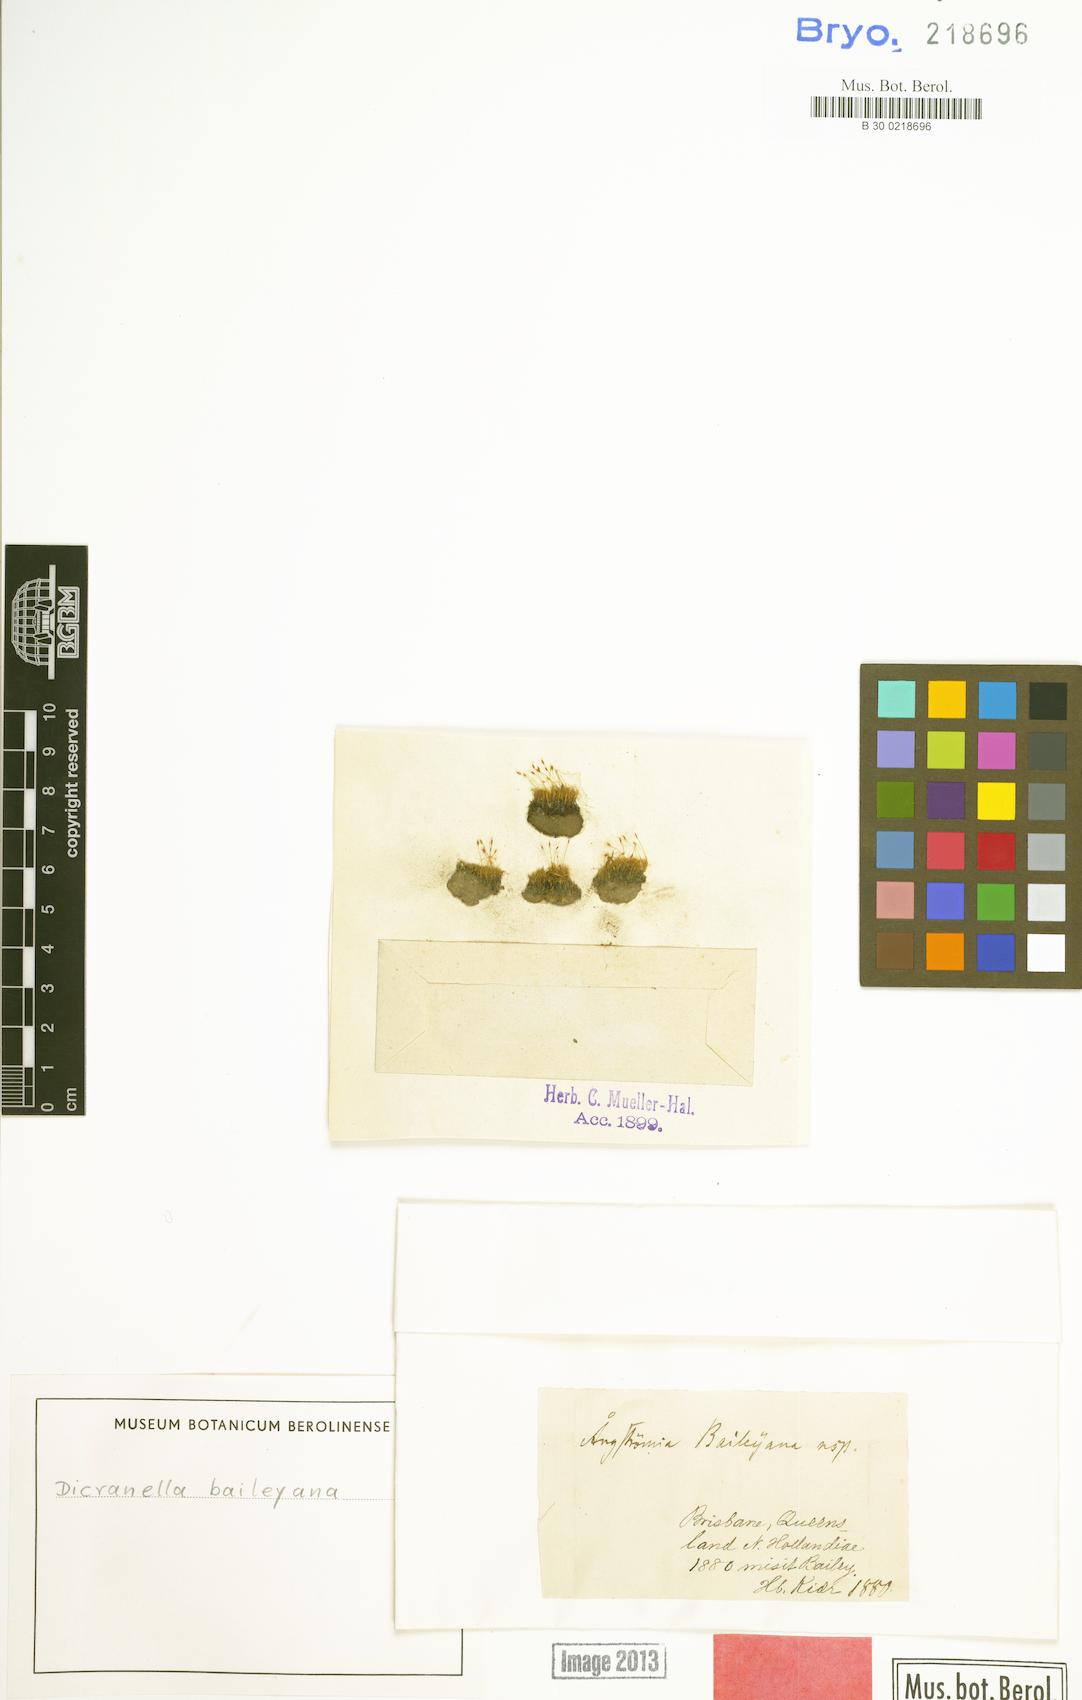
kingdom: Plantae
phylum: Bryophyta
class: Bryopsida
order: Dicranales
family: Dicranellaceae
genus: Dicranella
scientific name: Dicranella baileyana
